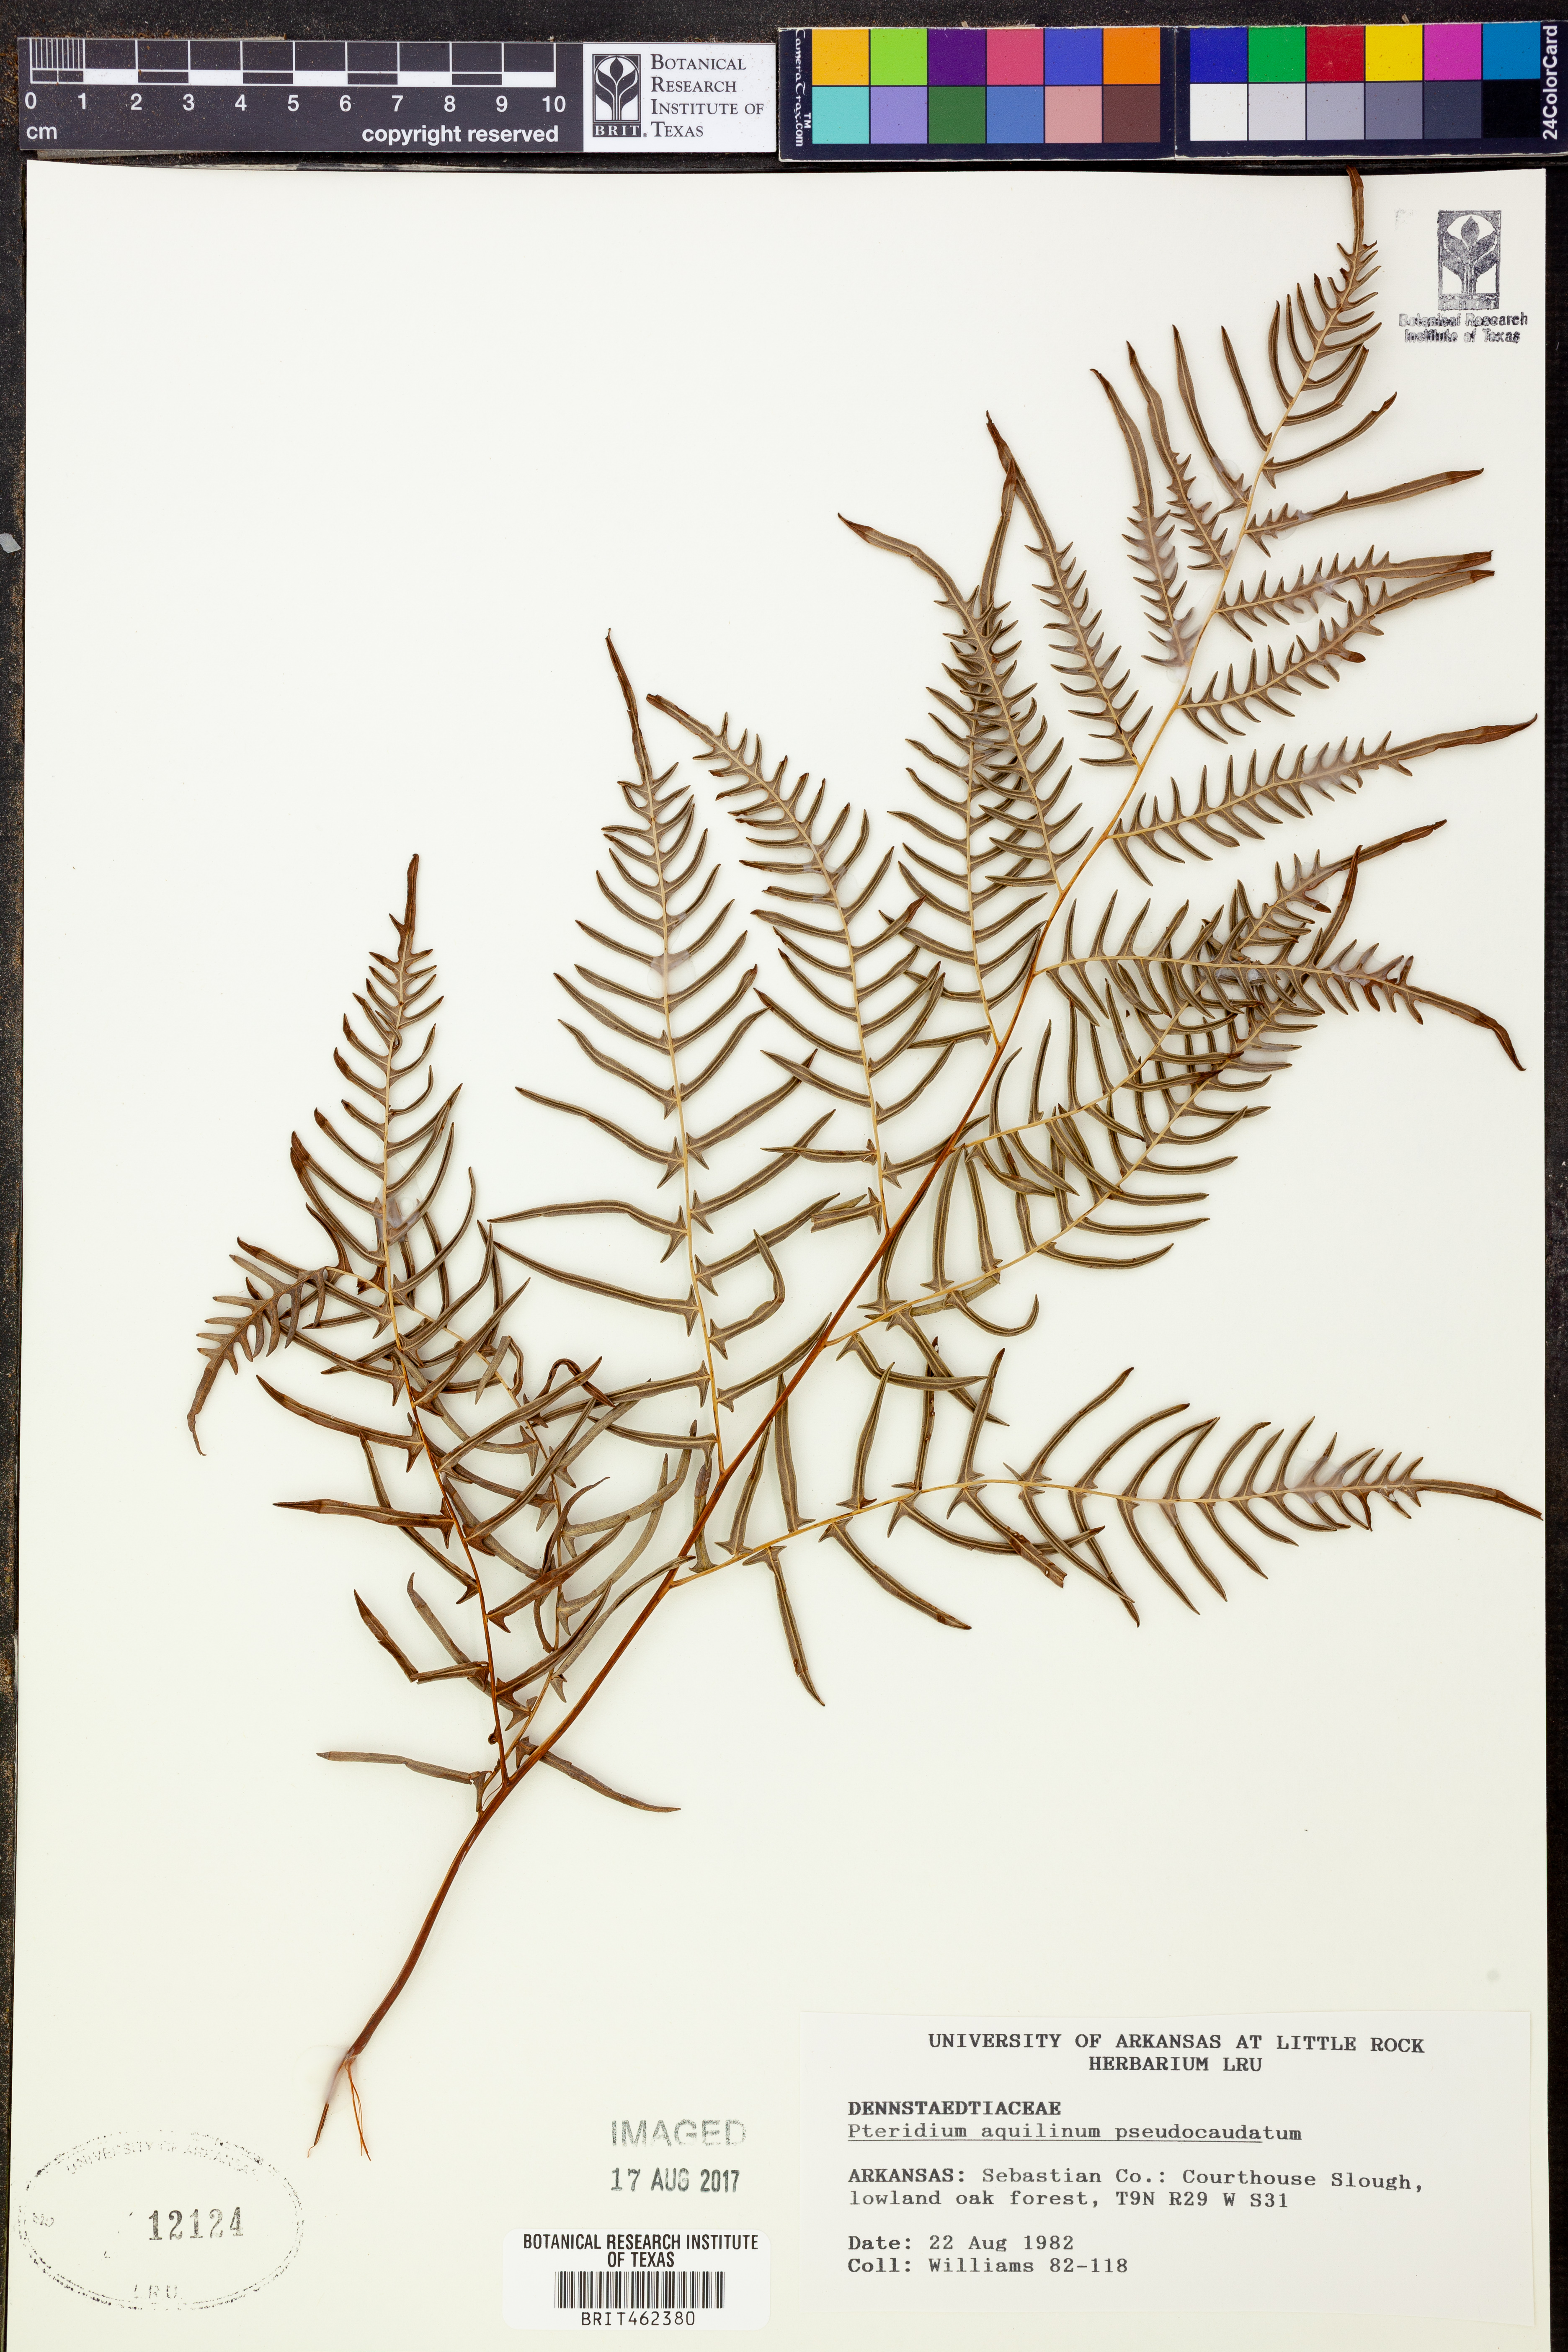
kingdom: Plantae
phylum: Tracheophyta
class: Polypodiopsida
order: Polypodiales
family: Dennstaedtiaceae
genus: Pteridium
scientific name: Pteridium aquilinum
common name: Bracken
